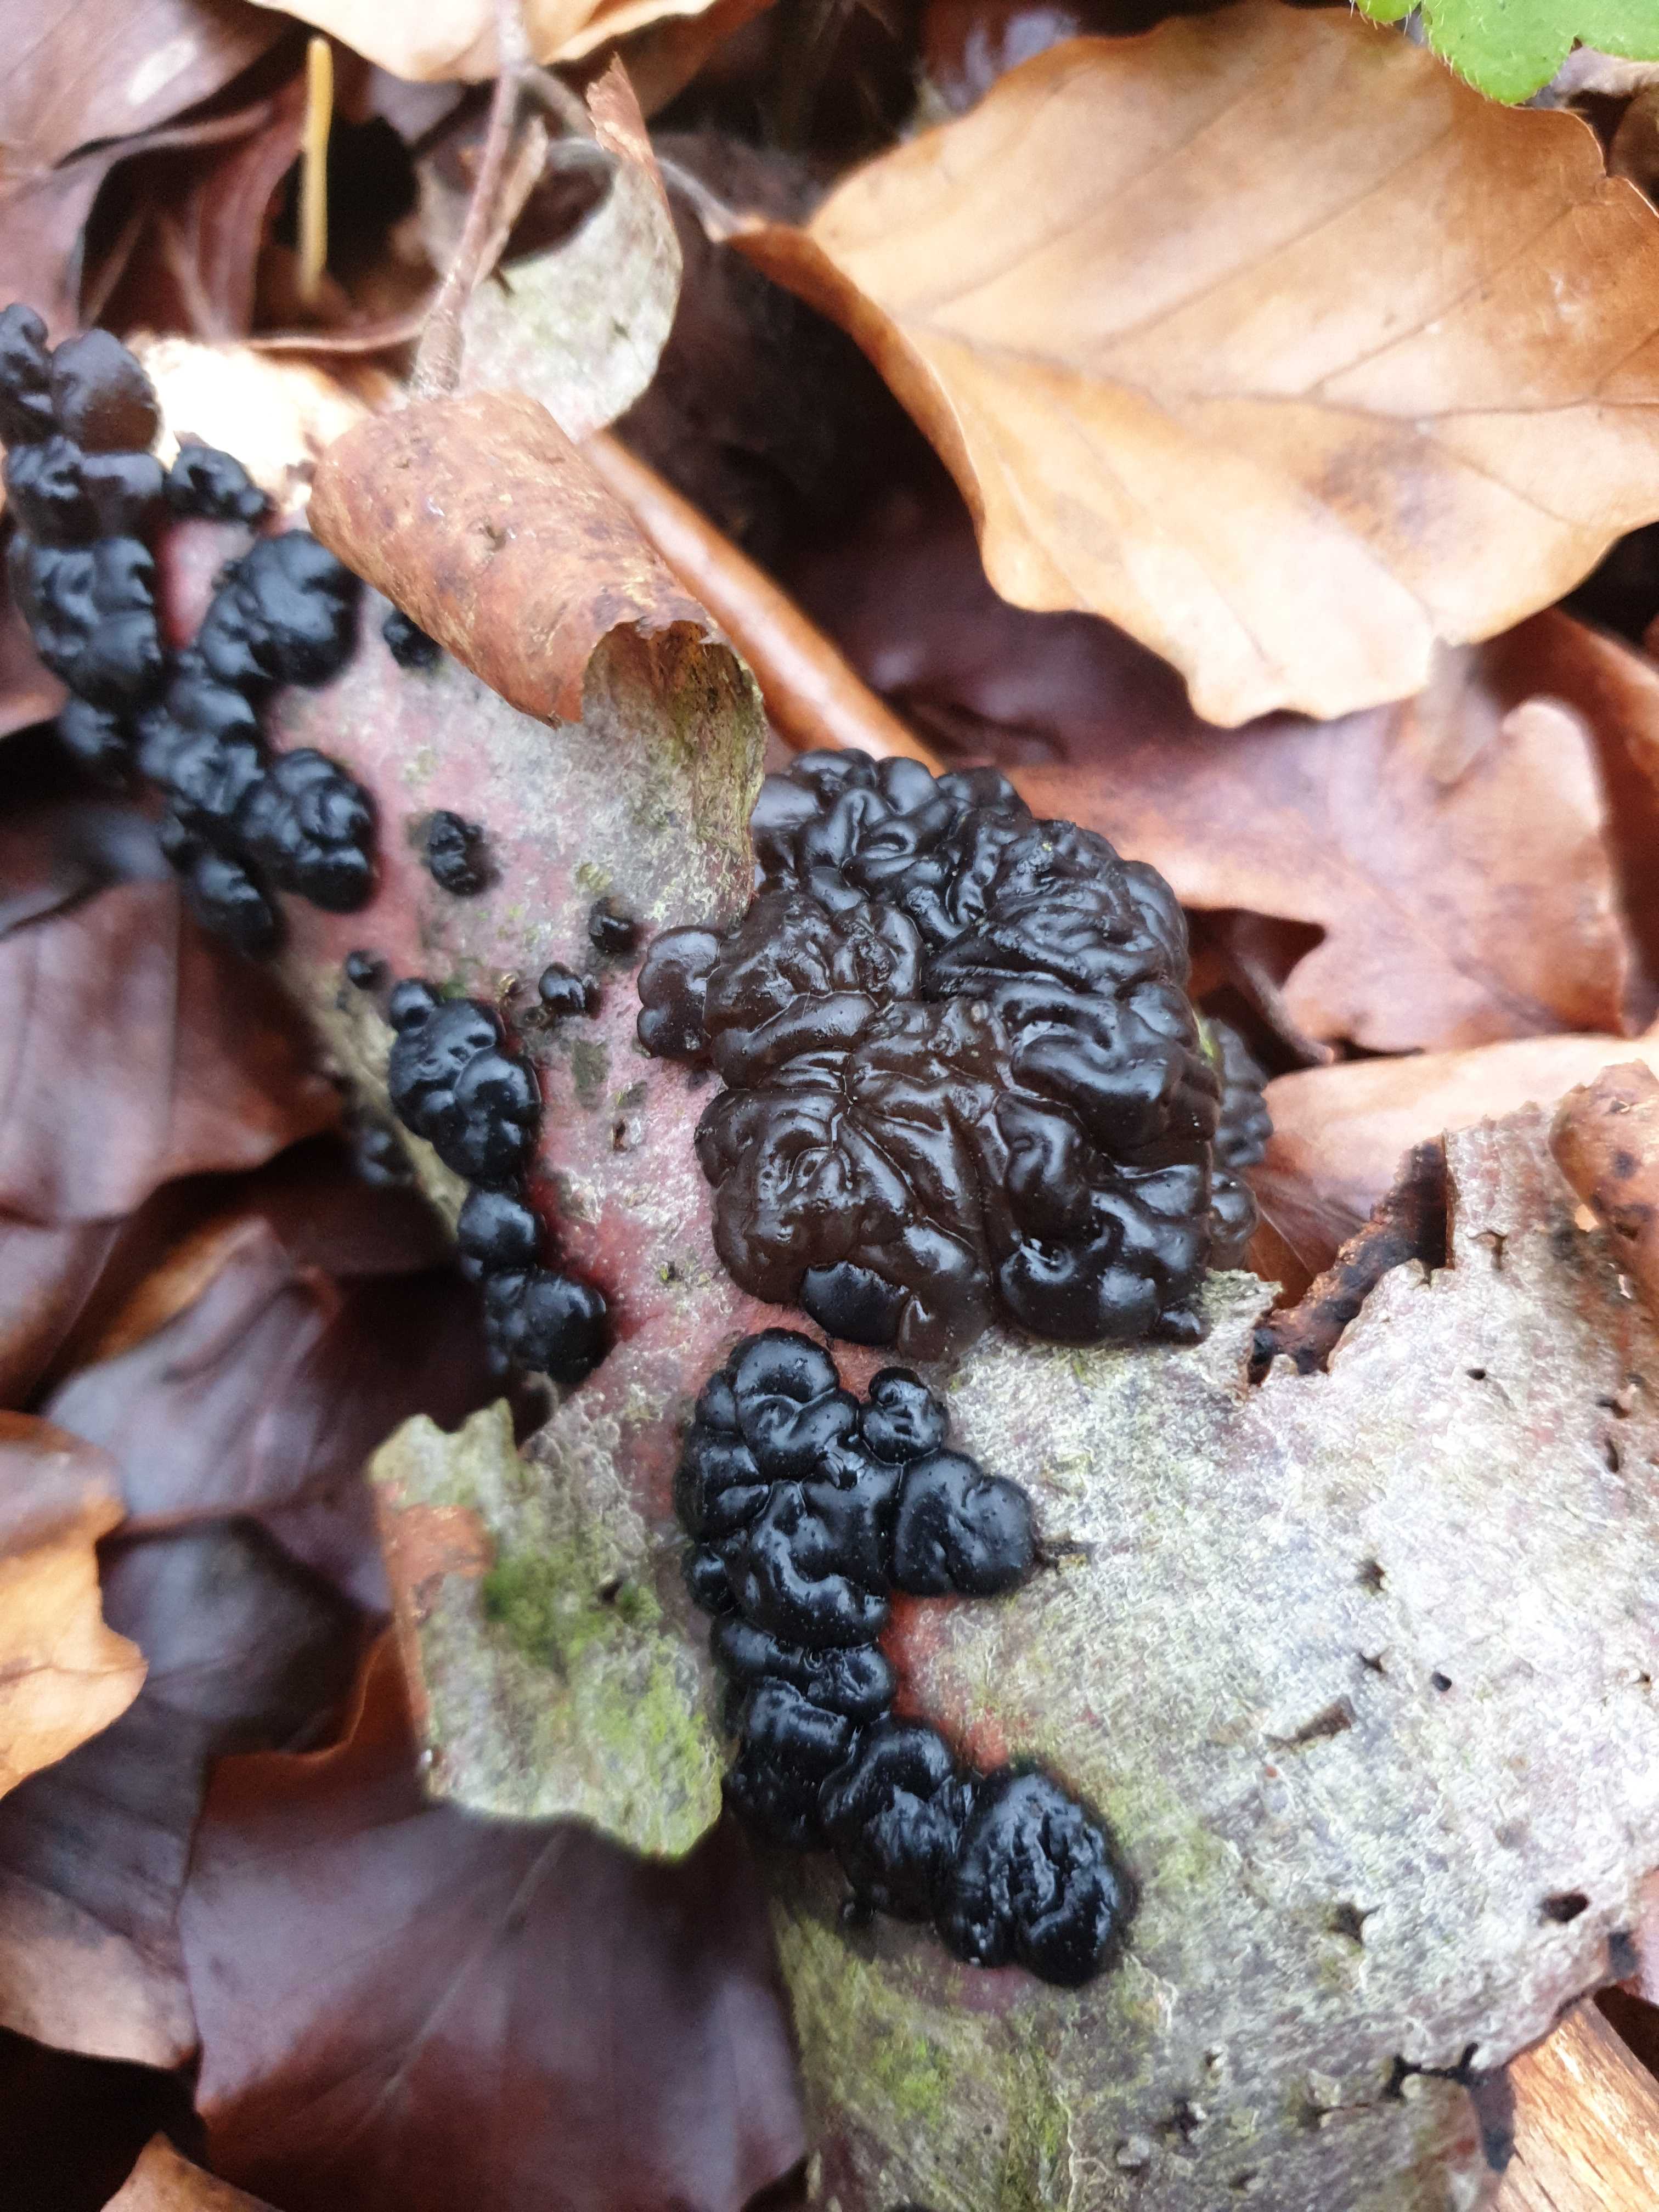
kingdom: Fungi
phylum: Basidiomycota
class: Agaricomycetes
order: Auriculariales
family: Auriculariaceae
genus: Exidia
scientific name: Exidia nigricans
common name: almindelig bævretop
